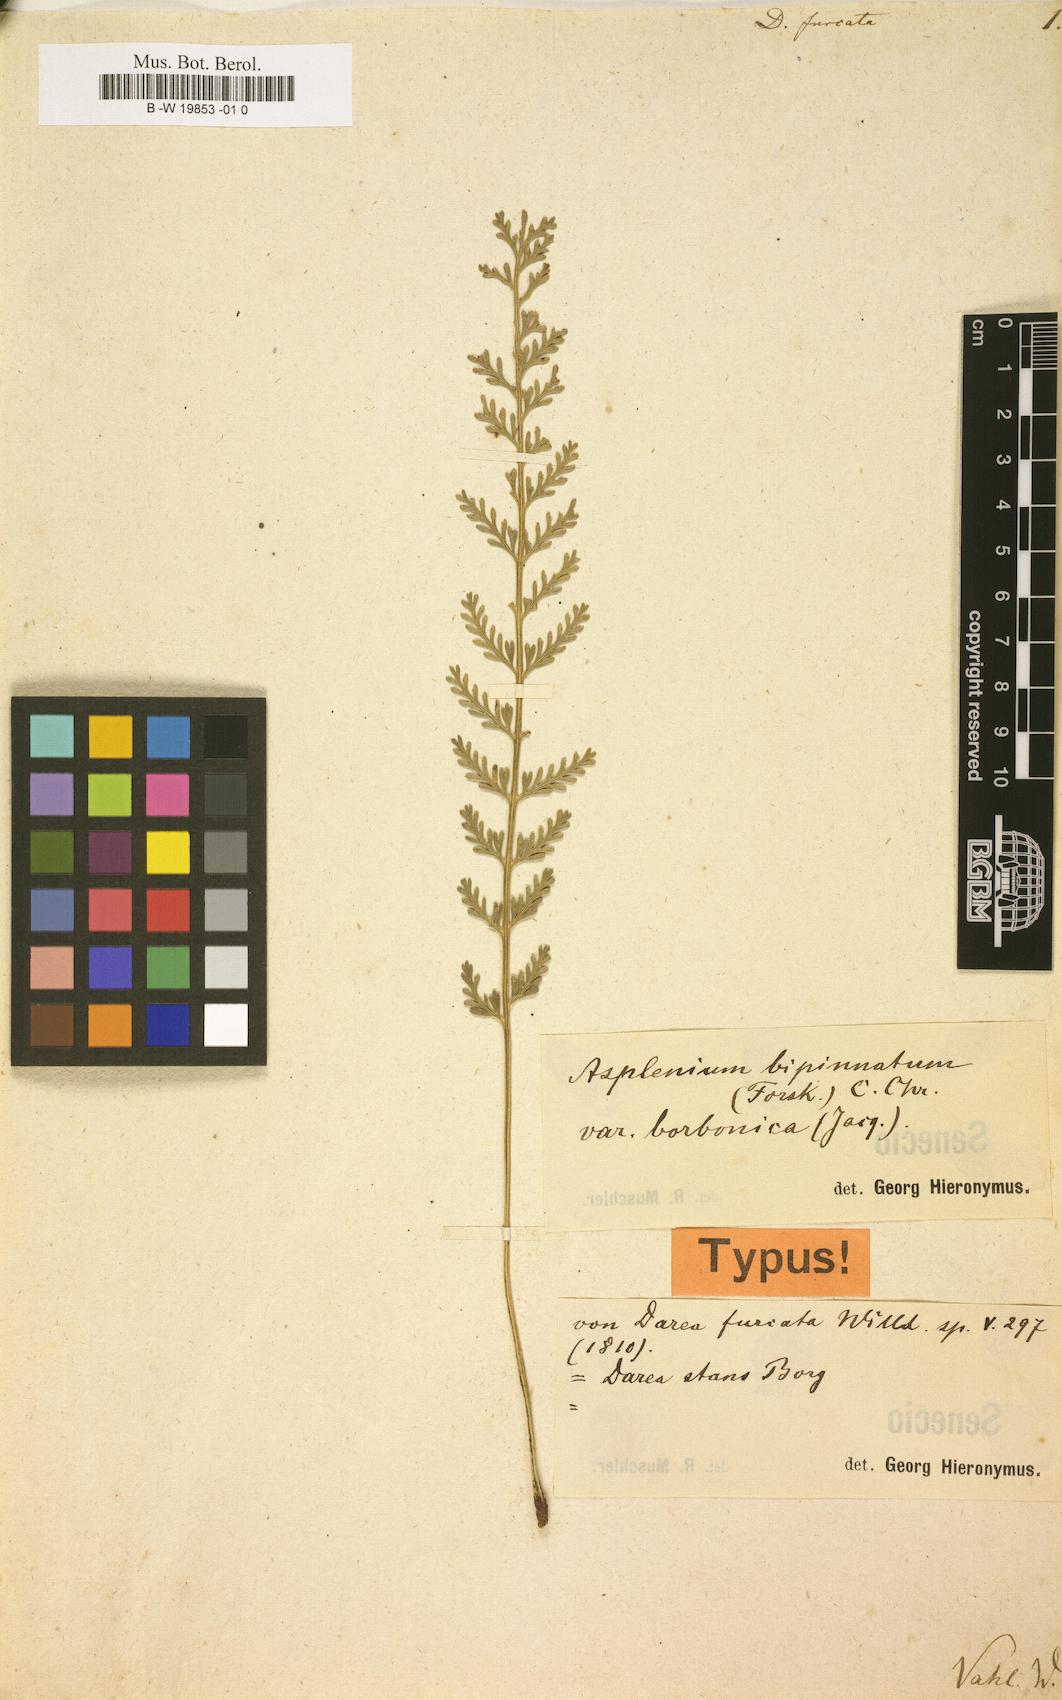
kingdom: Plantae
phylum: Tracheophyta
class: Polypodiopsida
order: Polypodiales
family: Aspleniaceae
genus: Asplenium
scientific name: Asplenium
